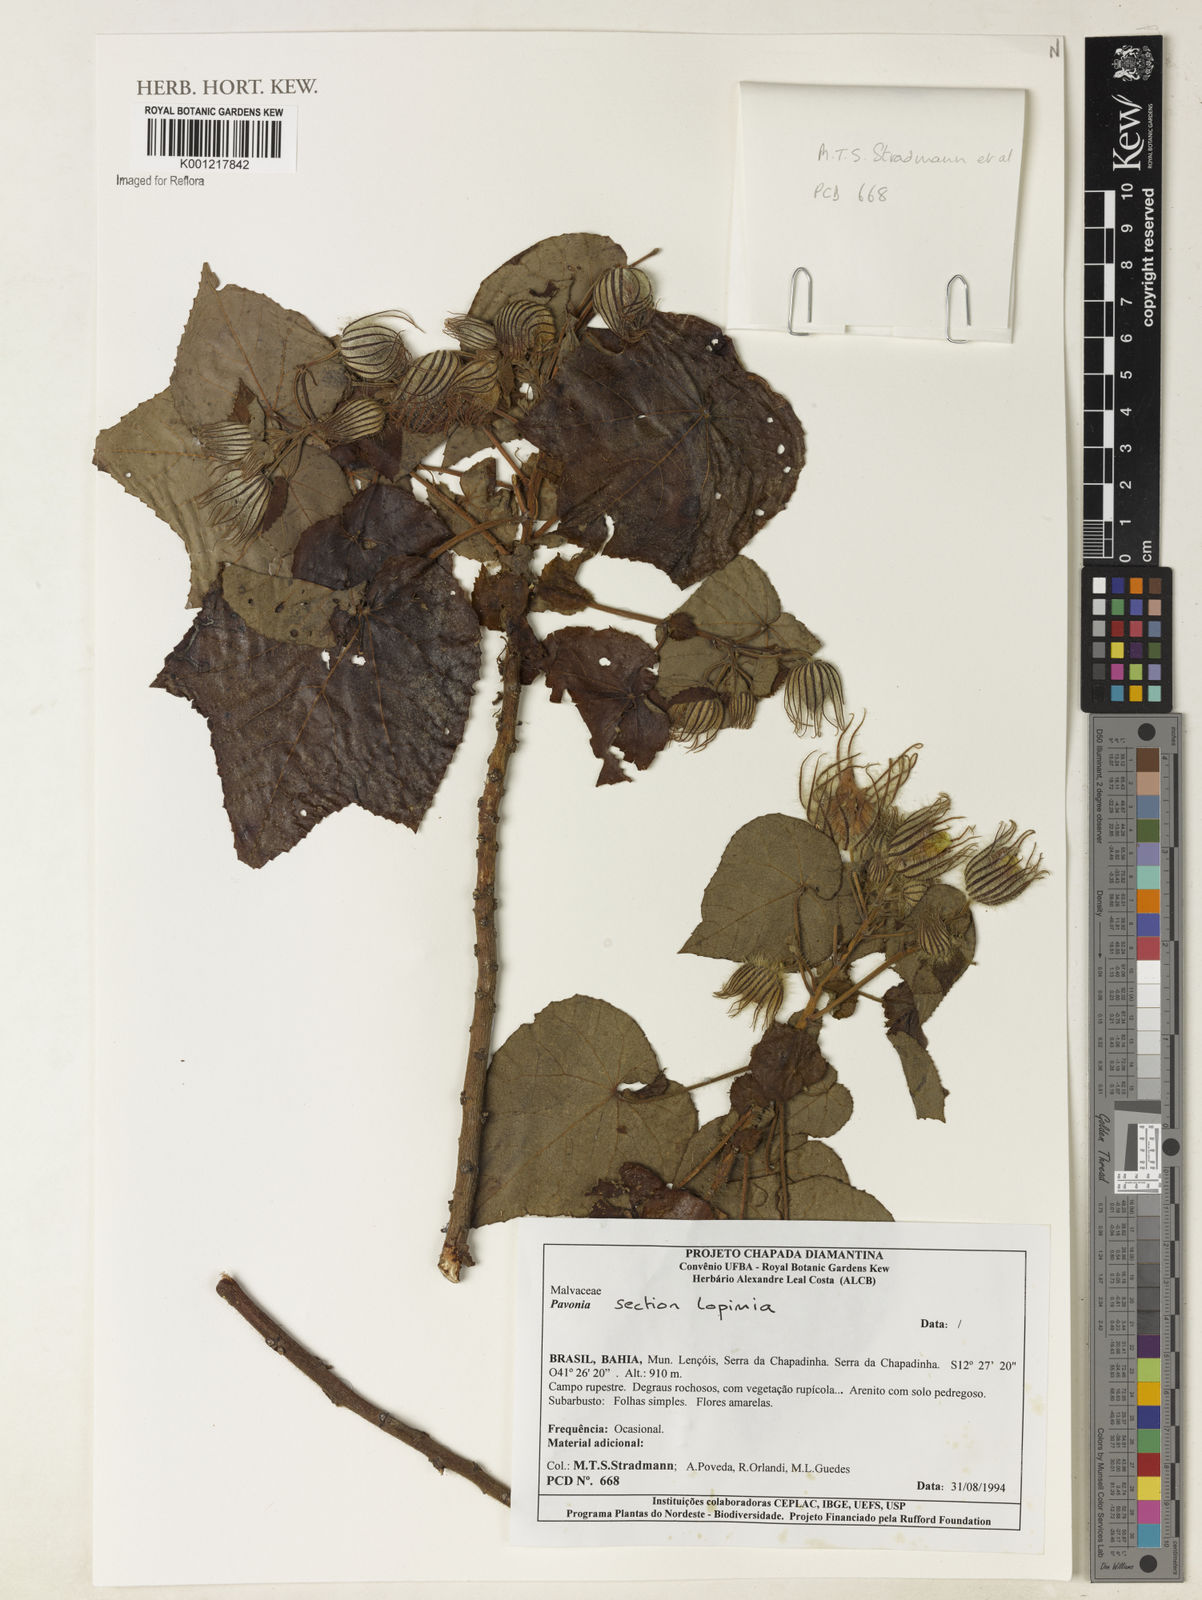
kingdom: Plantae
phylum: Tracheophyta
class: Magnoliopsida
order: Malvales
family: Malvaceae
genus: Pavonia
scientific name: Pavonia
